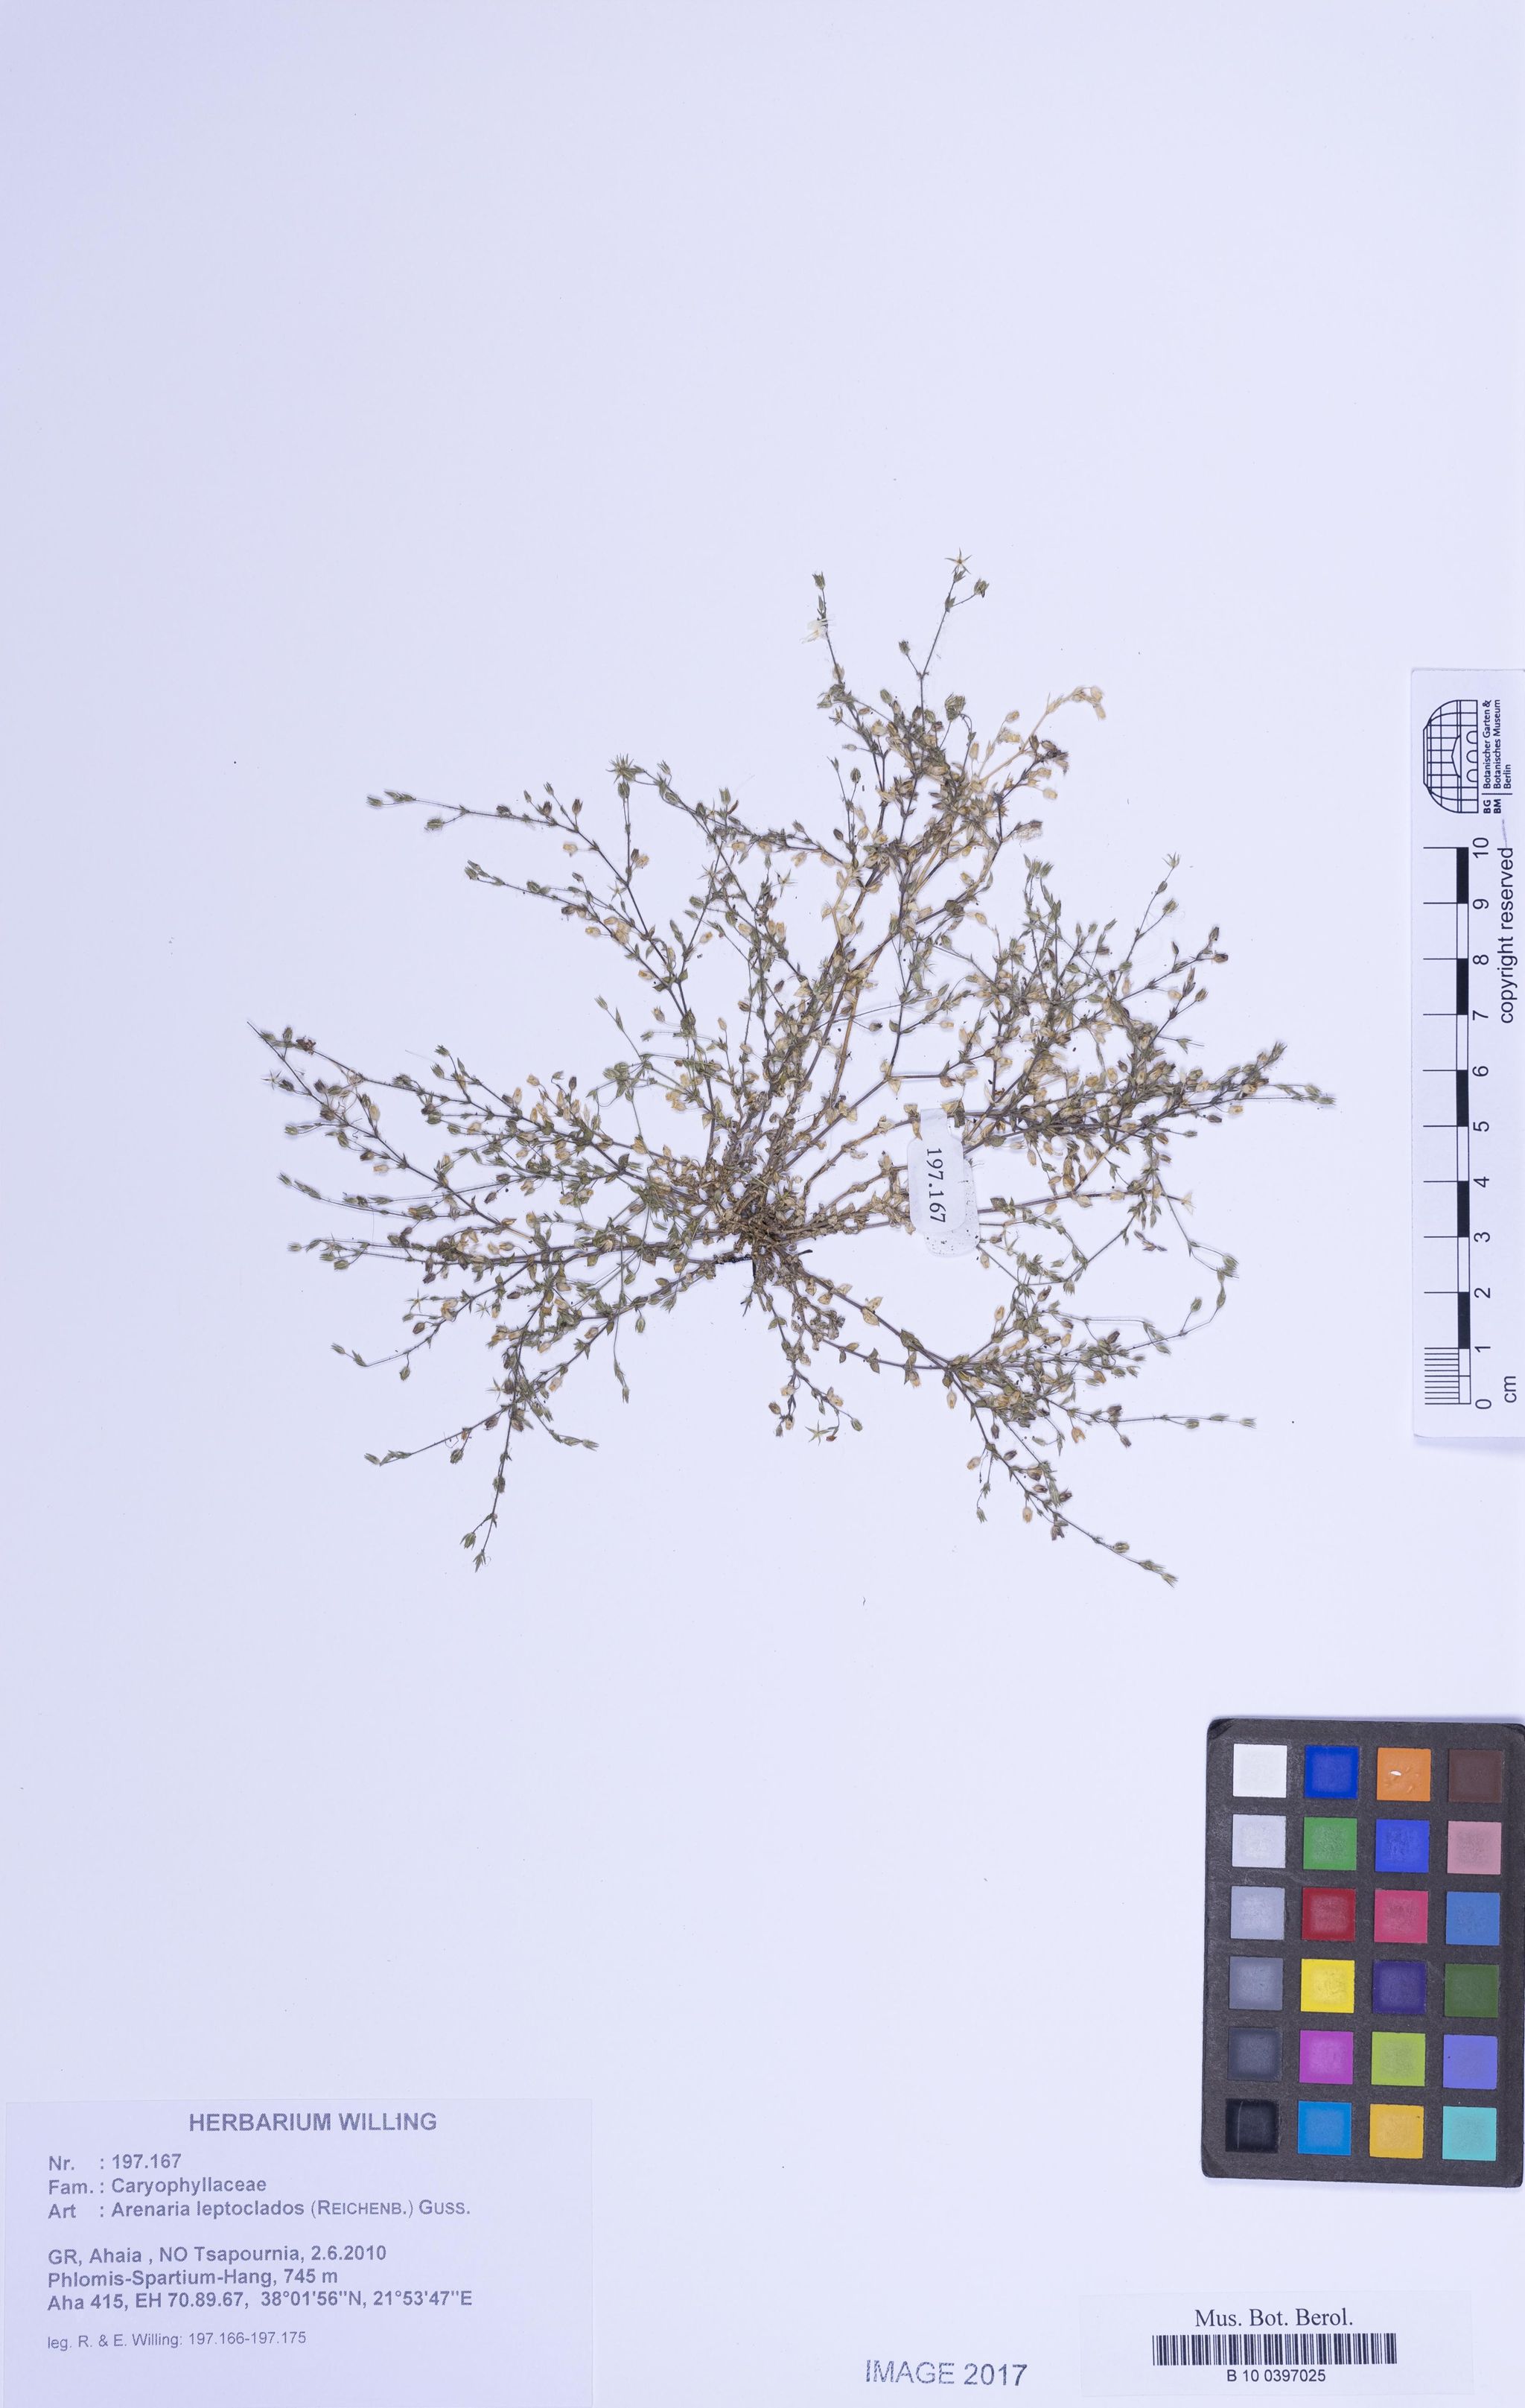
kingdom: Plantae
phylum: Tracheophyta
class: Magnoliopsida
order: Caryophyllales
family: Caryophyllaceae
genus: Arenaria
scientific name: Arenaria leptoclados
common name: Thyme-leaved sandwort
